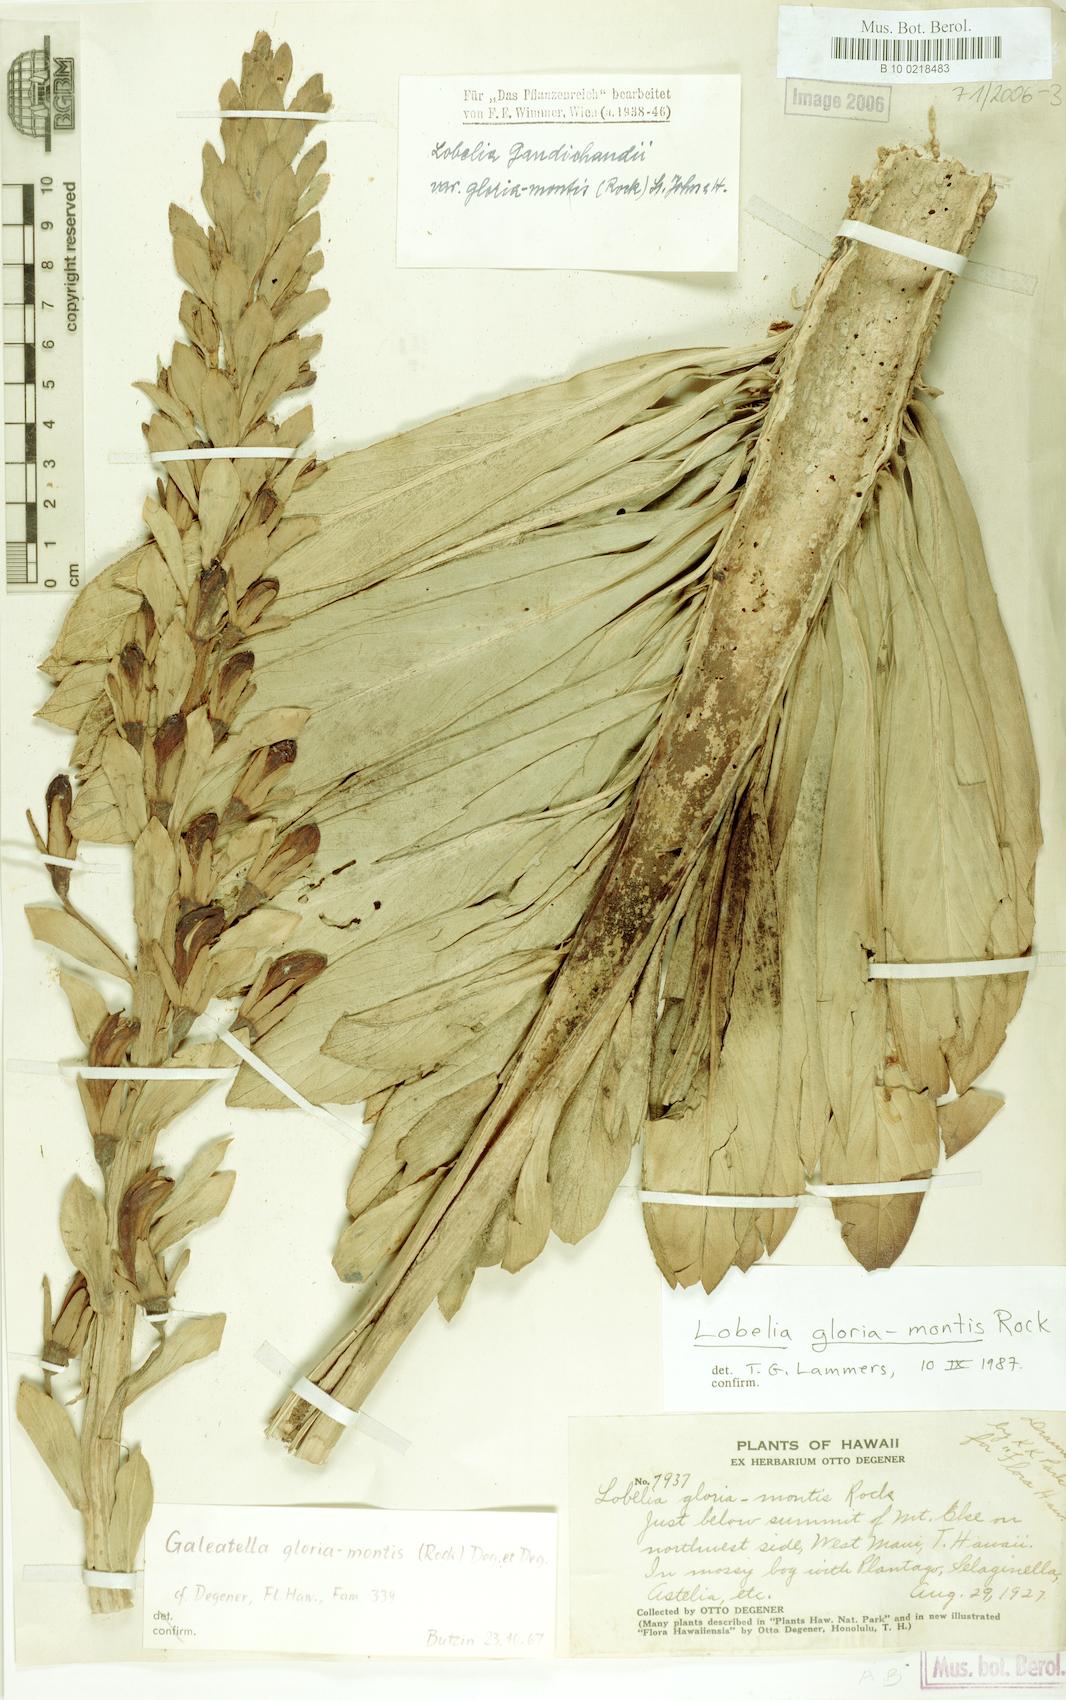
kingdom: Plantae
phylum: Tracheophyta
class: Magnoliopsida
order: Asterales
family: Campanulaceae
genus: Lobelia
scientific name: Lobelia gloria-montis
